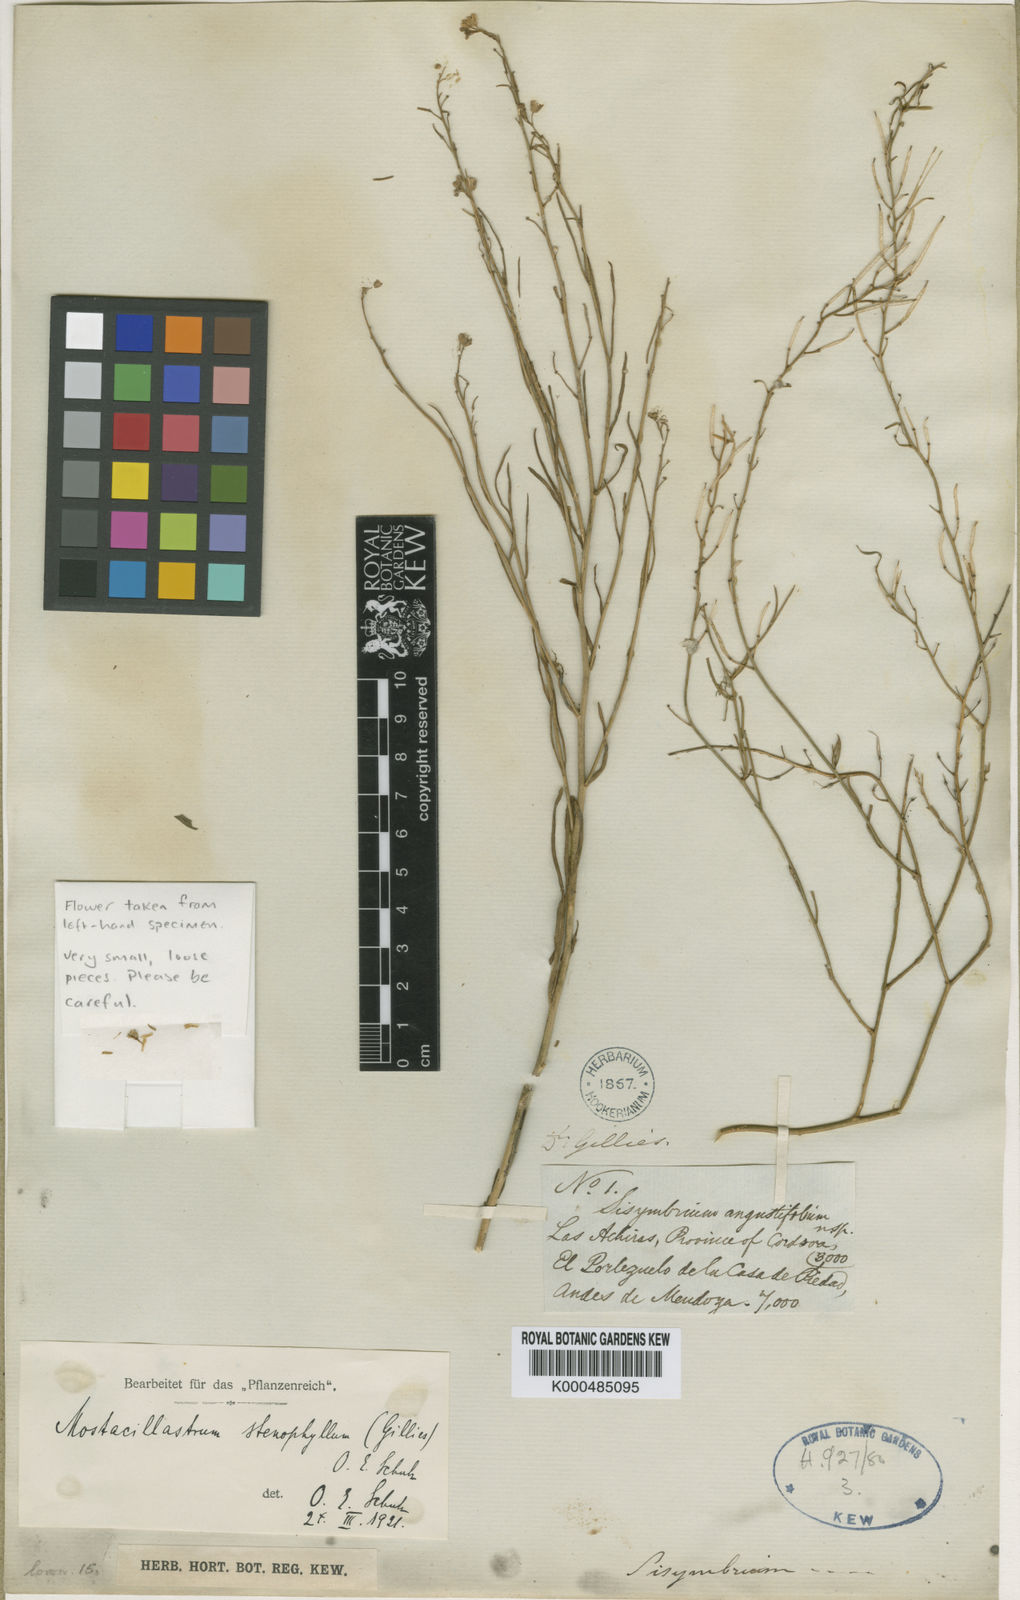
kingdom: Plantae
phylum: Tracheophyta
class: Magnoliopsida
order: Brassicales
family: Brassicaceae
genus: Mostacillastrum
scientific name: Mostacillastrum stenophyllum
